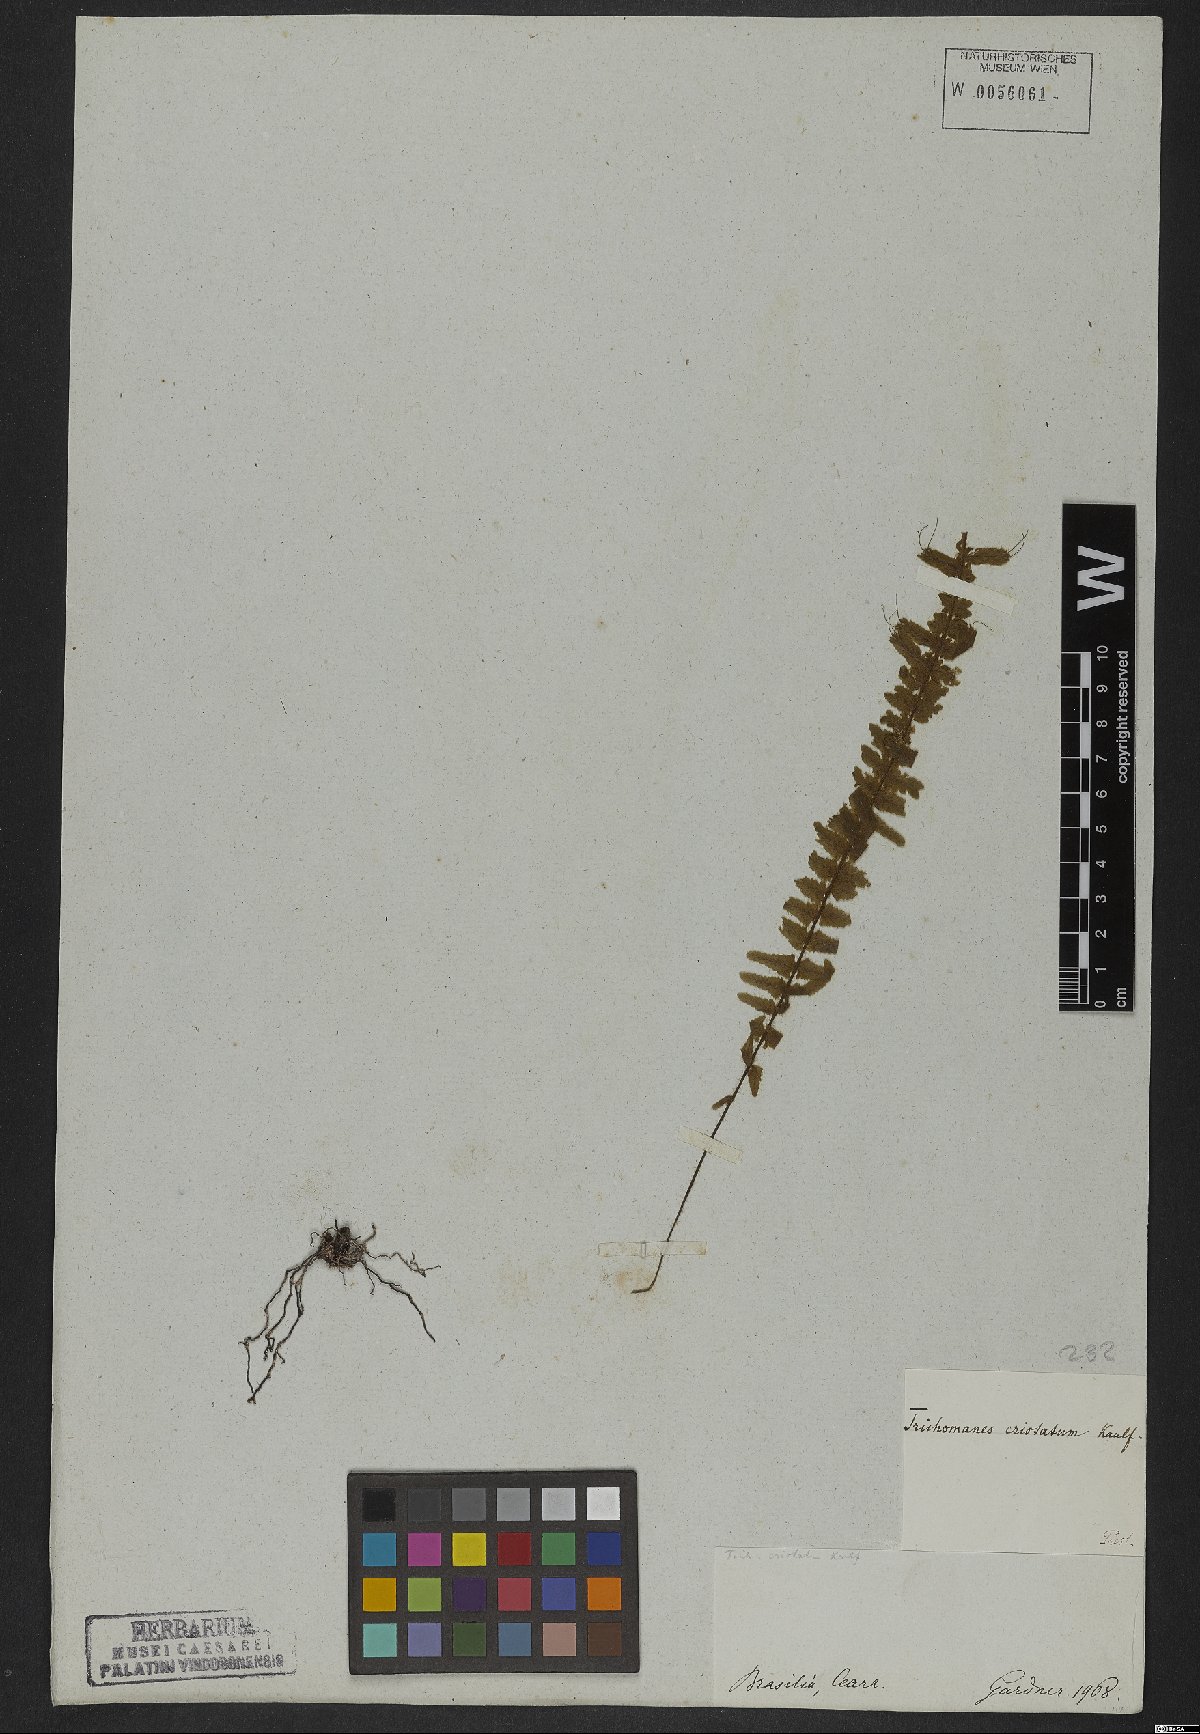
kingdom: Plantae
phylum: Tracheophyta
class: Polypodiopsida
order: Hymenophyllales
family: Hymenophyllaceae
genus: Trichomanes
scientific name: Trichomanes cristatum
